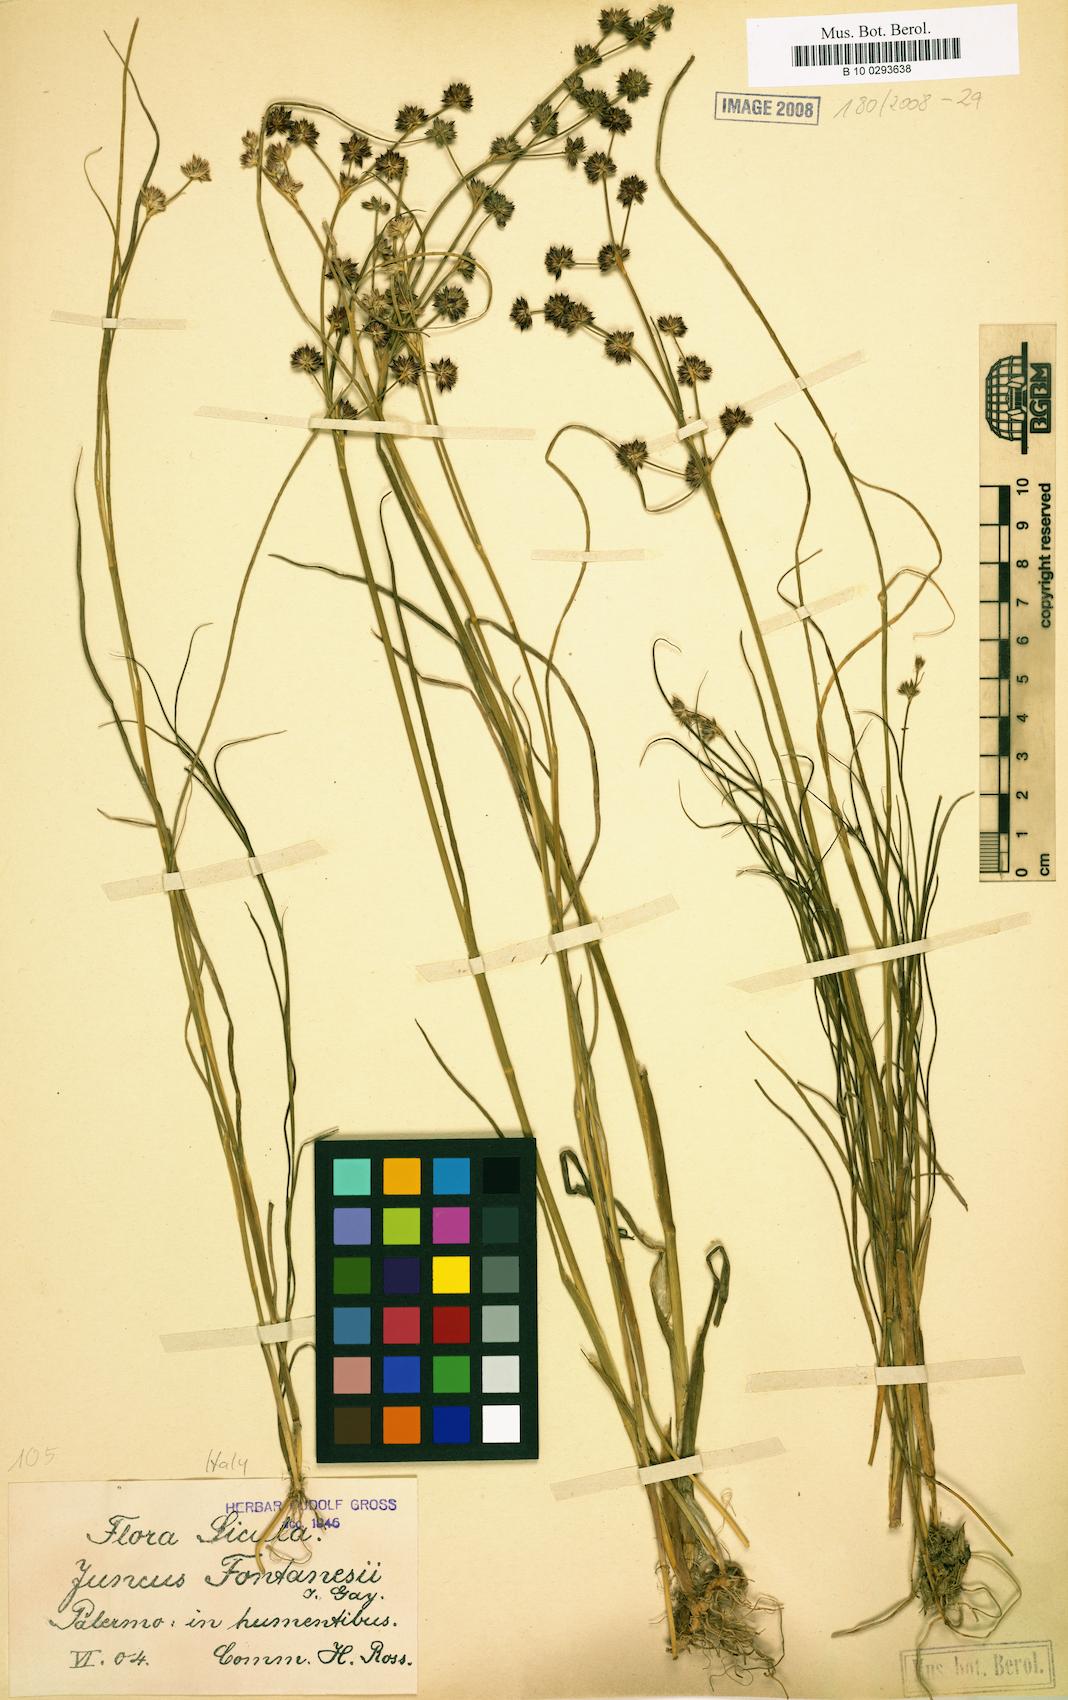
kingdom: Plantae
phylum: Tracheophyta
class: Liliopsida
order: Poales
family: Juncaceae
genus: Juncus
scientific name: Juncus fontanesii
